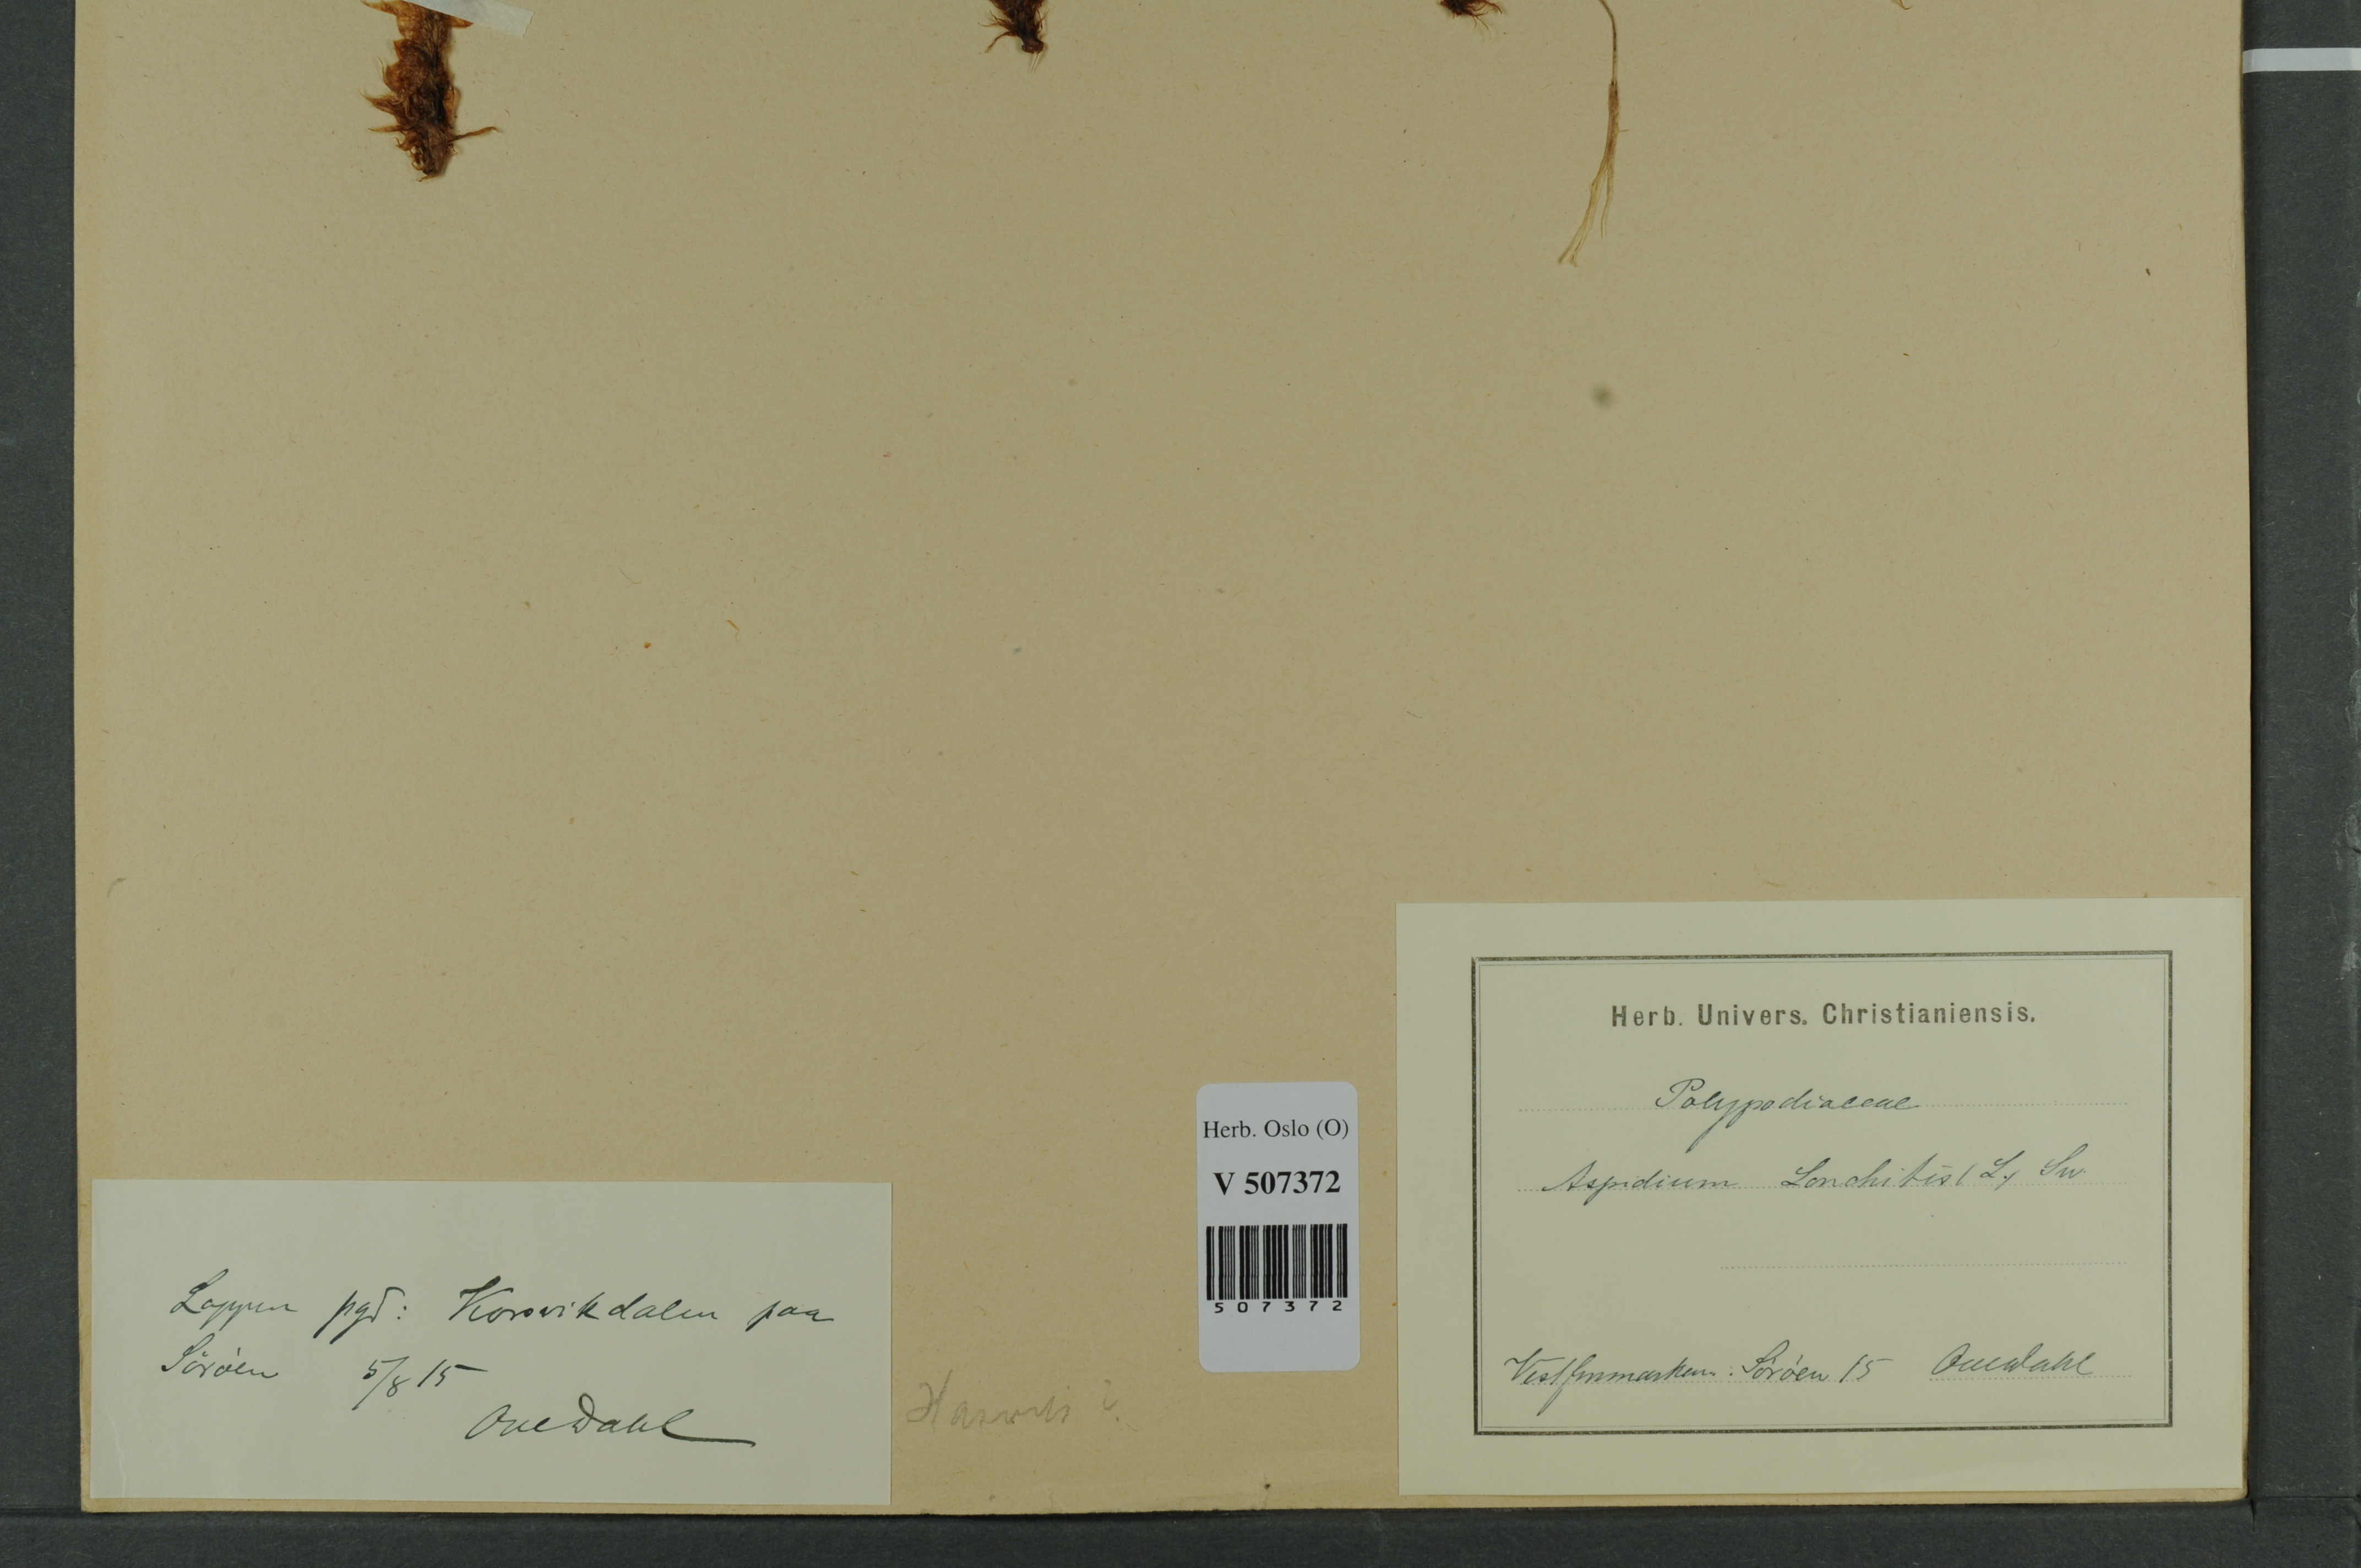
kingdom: Plantae
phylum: Tracheophyta
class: Polypodiopsida
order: Polypodiales
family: Dryopteridaceae
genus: Polystichum
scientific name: Polystichum lonchitis
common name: Holly fern
